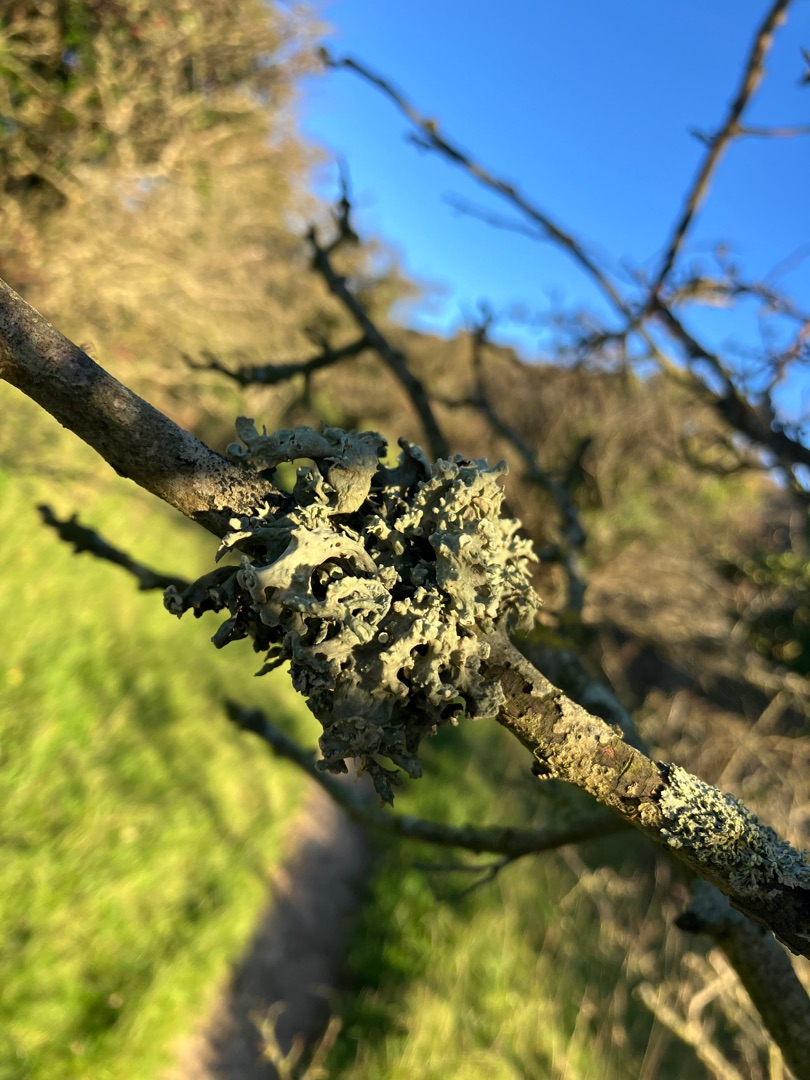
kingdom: Fungi
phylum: Ascomycota
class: Lecanoromycetes
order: Lecanorales
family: Ramalinaceae
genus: Ramalina
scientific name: Ramalina fastigiata
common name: Tue-grenlav
